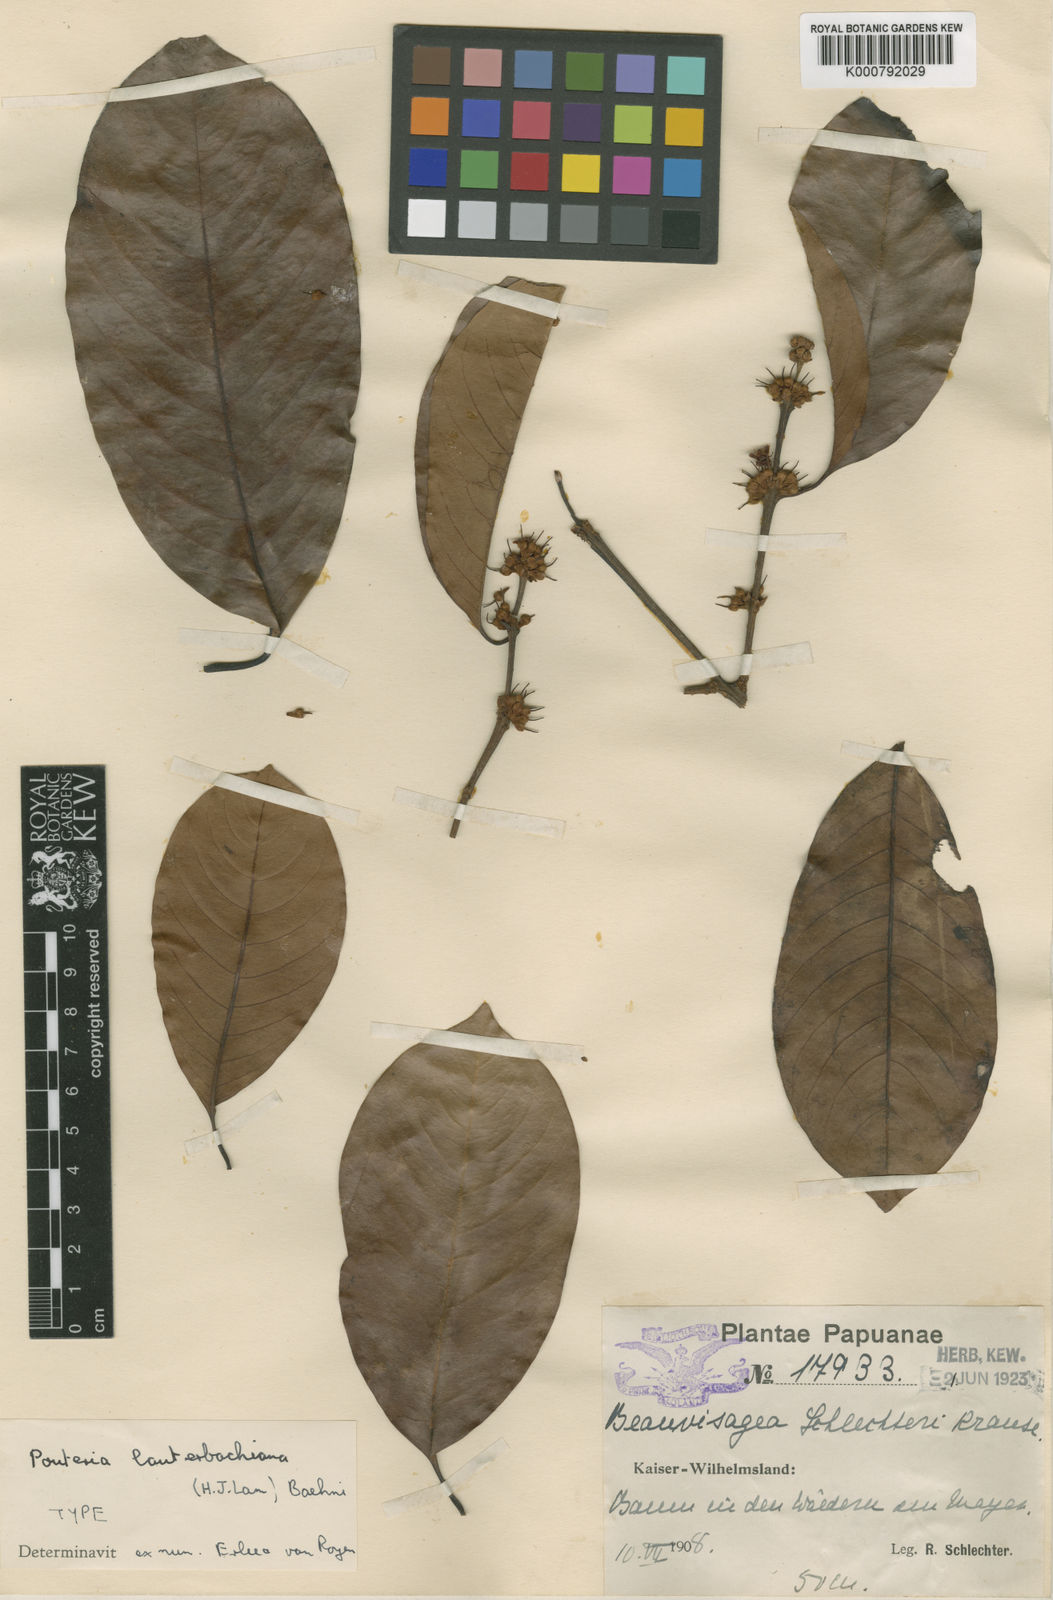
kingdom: Plantae
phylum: Tracheophyta
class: Magnoliopsida
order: Ericales
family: Sapotaceae
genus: Pichonia
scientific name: Pichonia lauterbachiana
